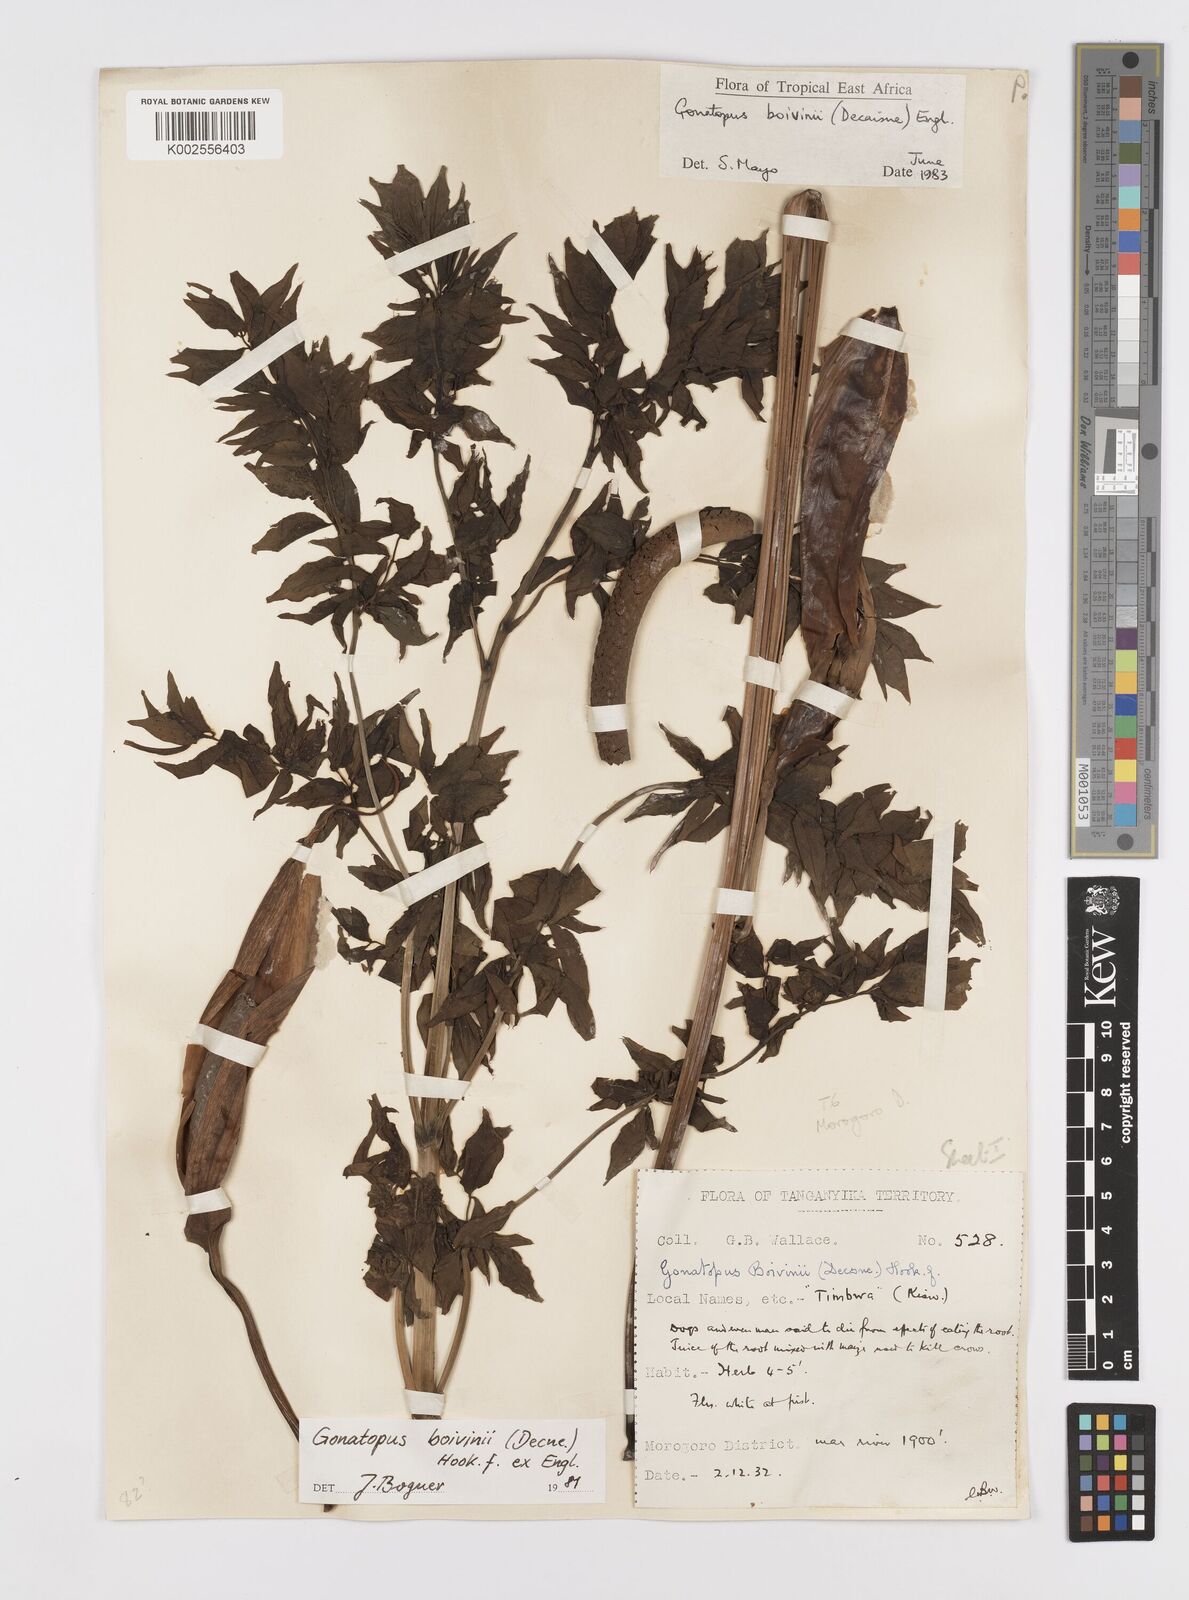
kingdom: Plantae
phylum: Tracheophyta
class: Liliopsida
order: Alismatales
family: Araceae
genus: Gonatopus
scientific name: Gonatopus boivinii
